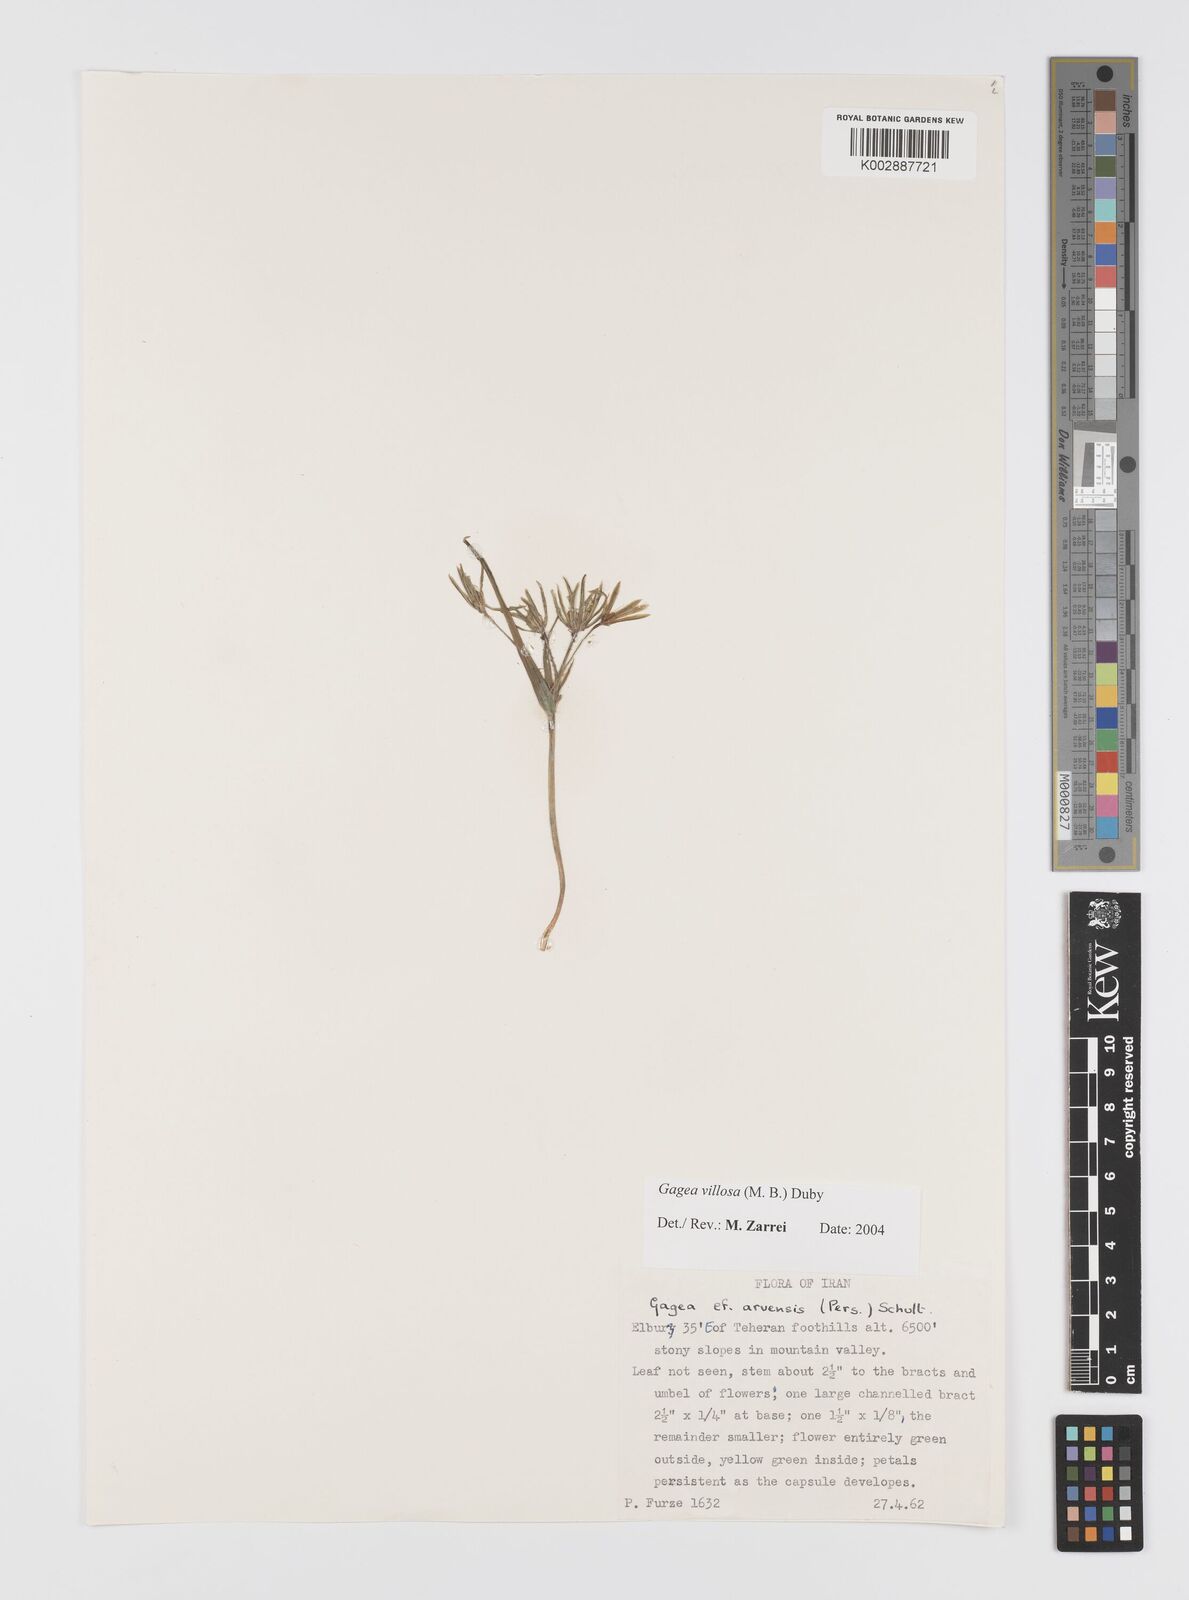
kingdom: Plantae
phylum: Tracheophyta
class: Liliopsida
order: Liliales
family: Liliaceae
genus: Gagea
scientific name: Gagea minima
